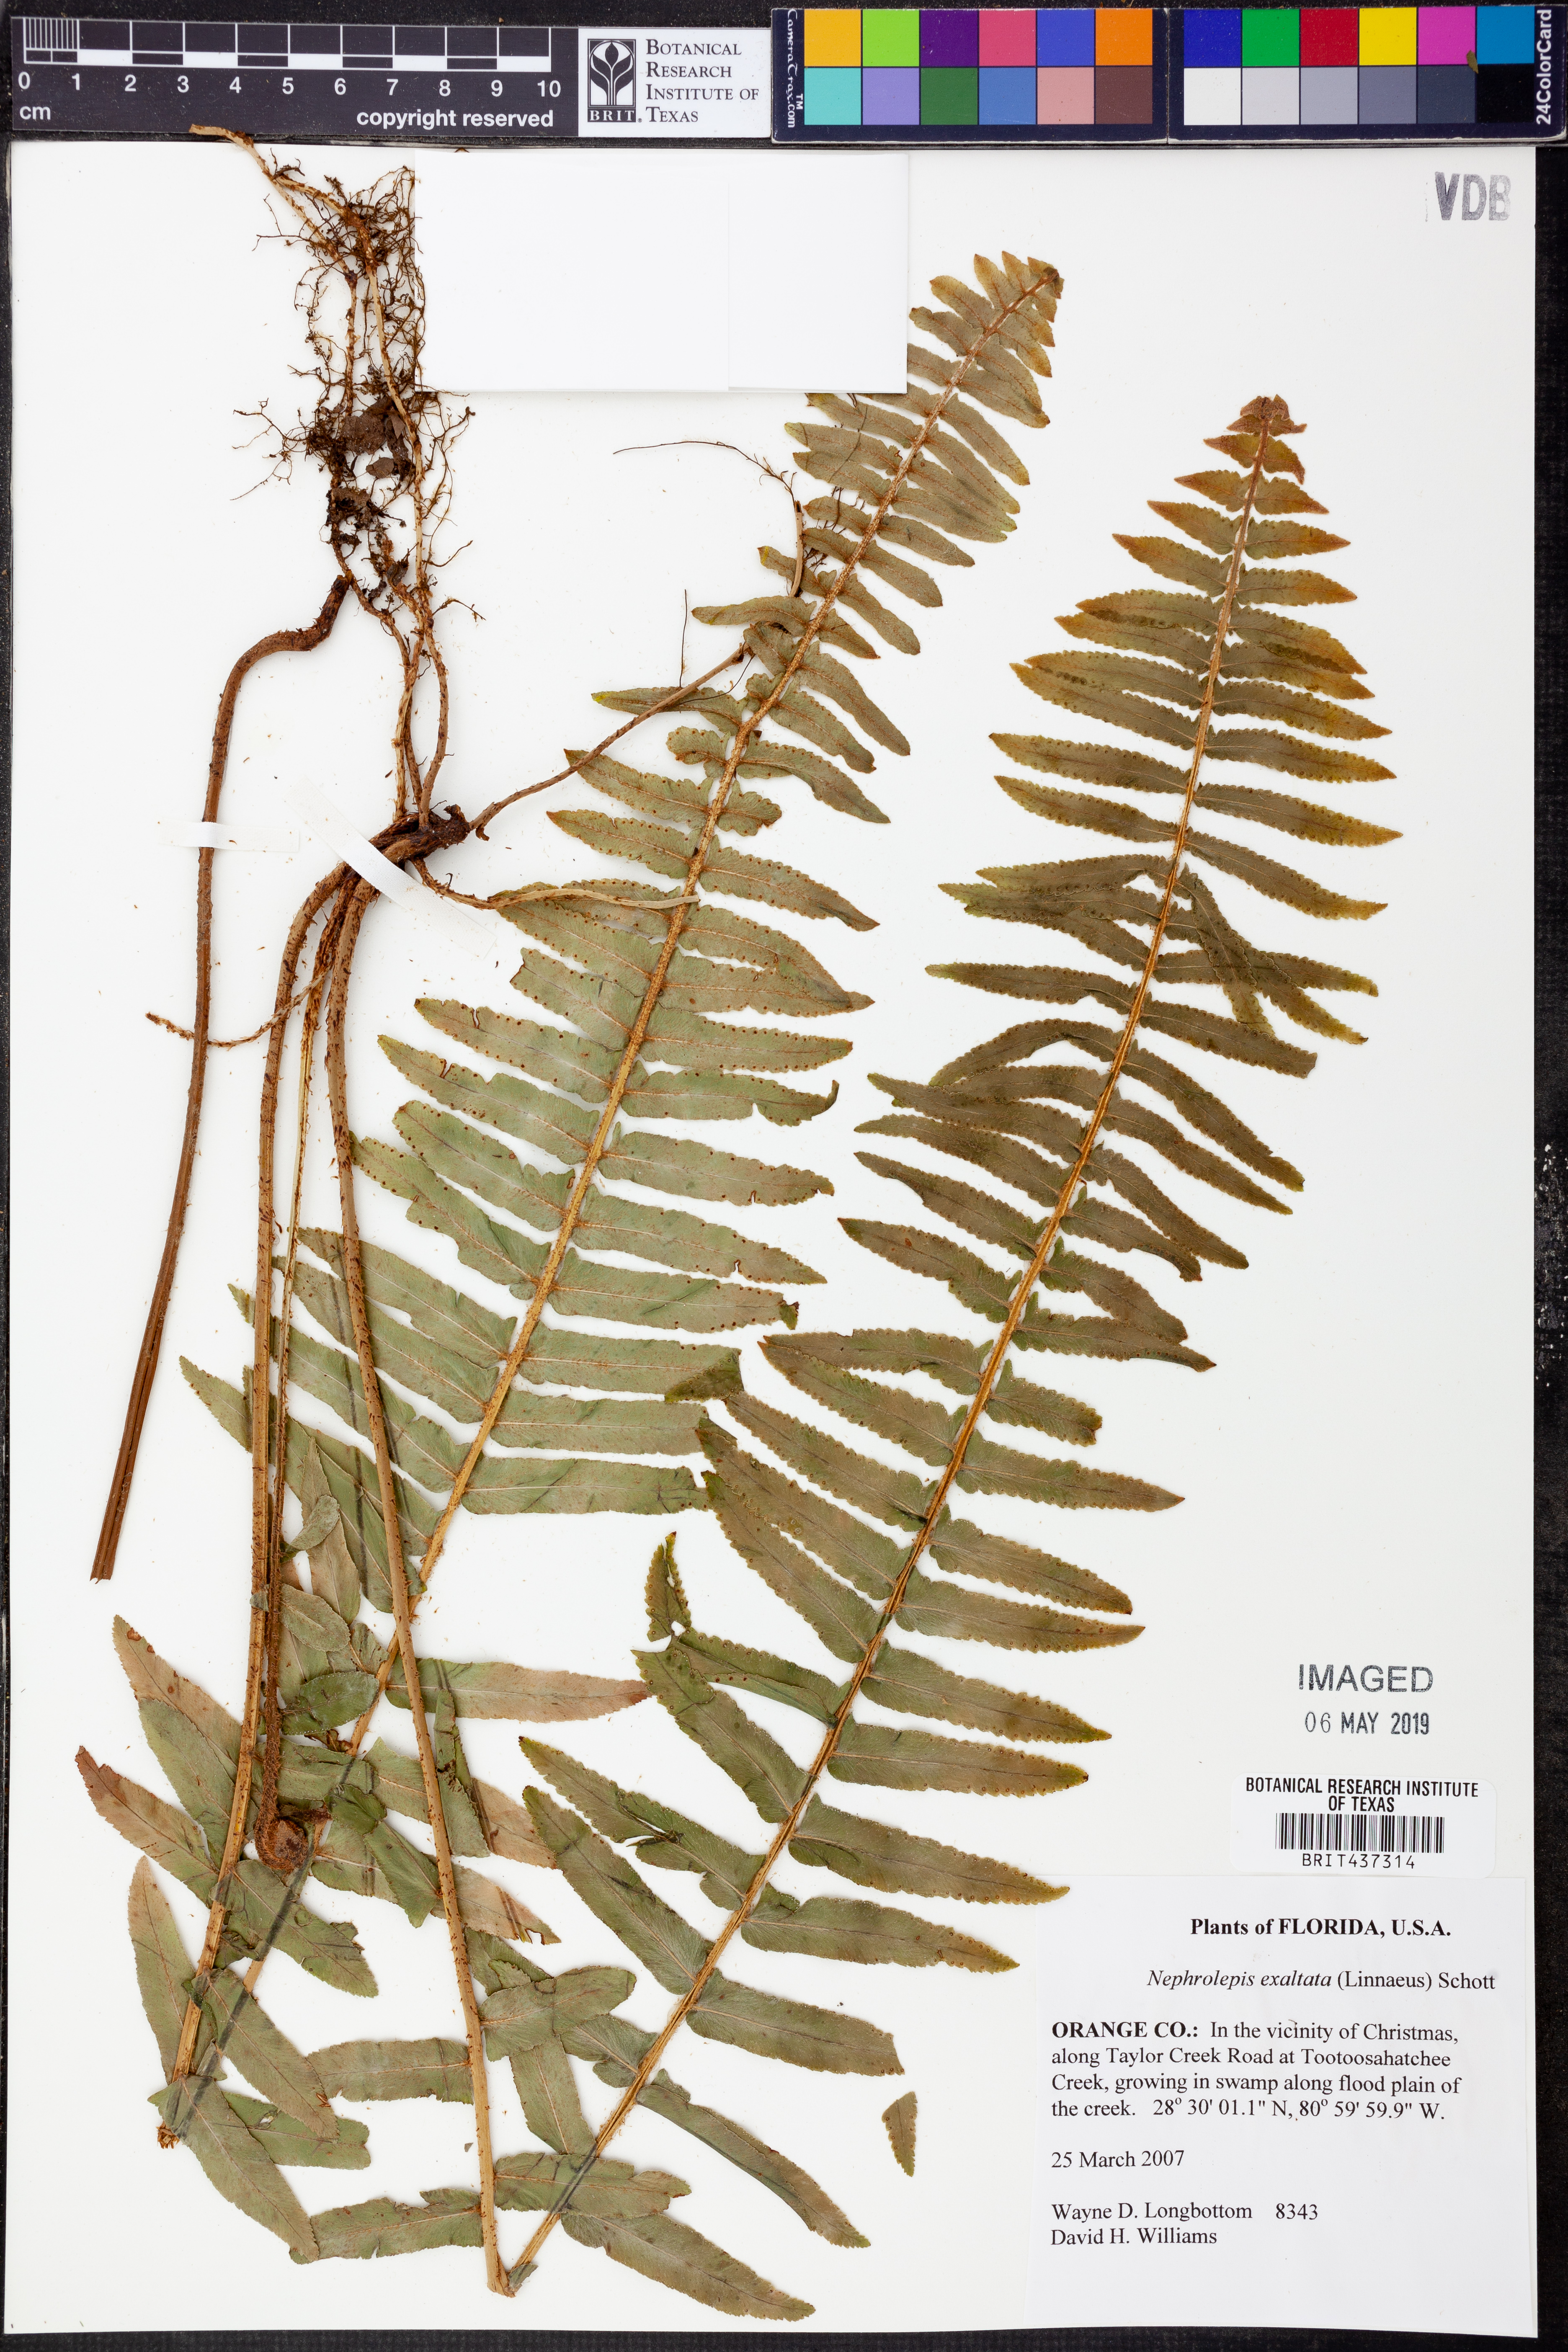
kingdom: Plantae
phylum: Tracheophyta
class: Polypodiopsida
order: Polypodiales
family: Nephrolepidaceae
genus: Nephrolepis
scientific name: Nephrolepis exaltata
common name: Sword fern
